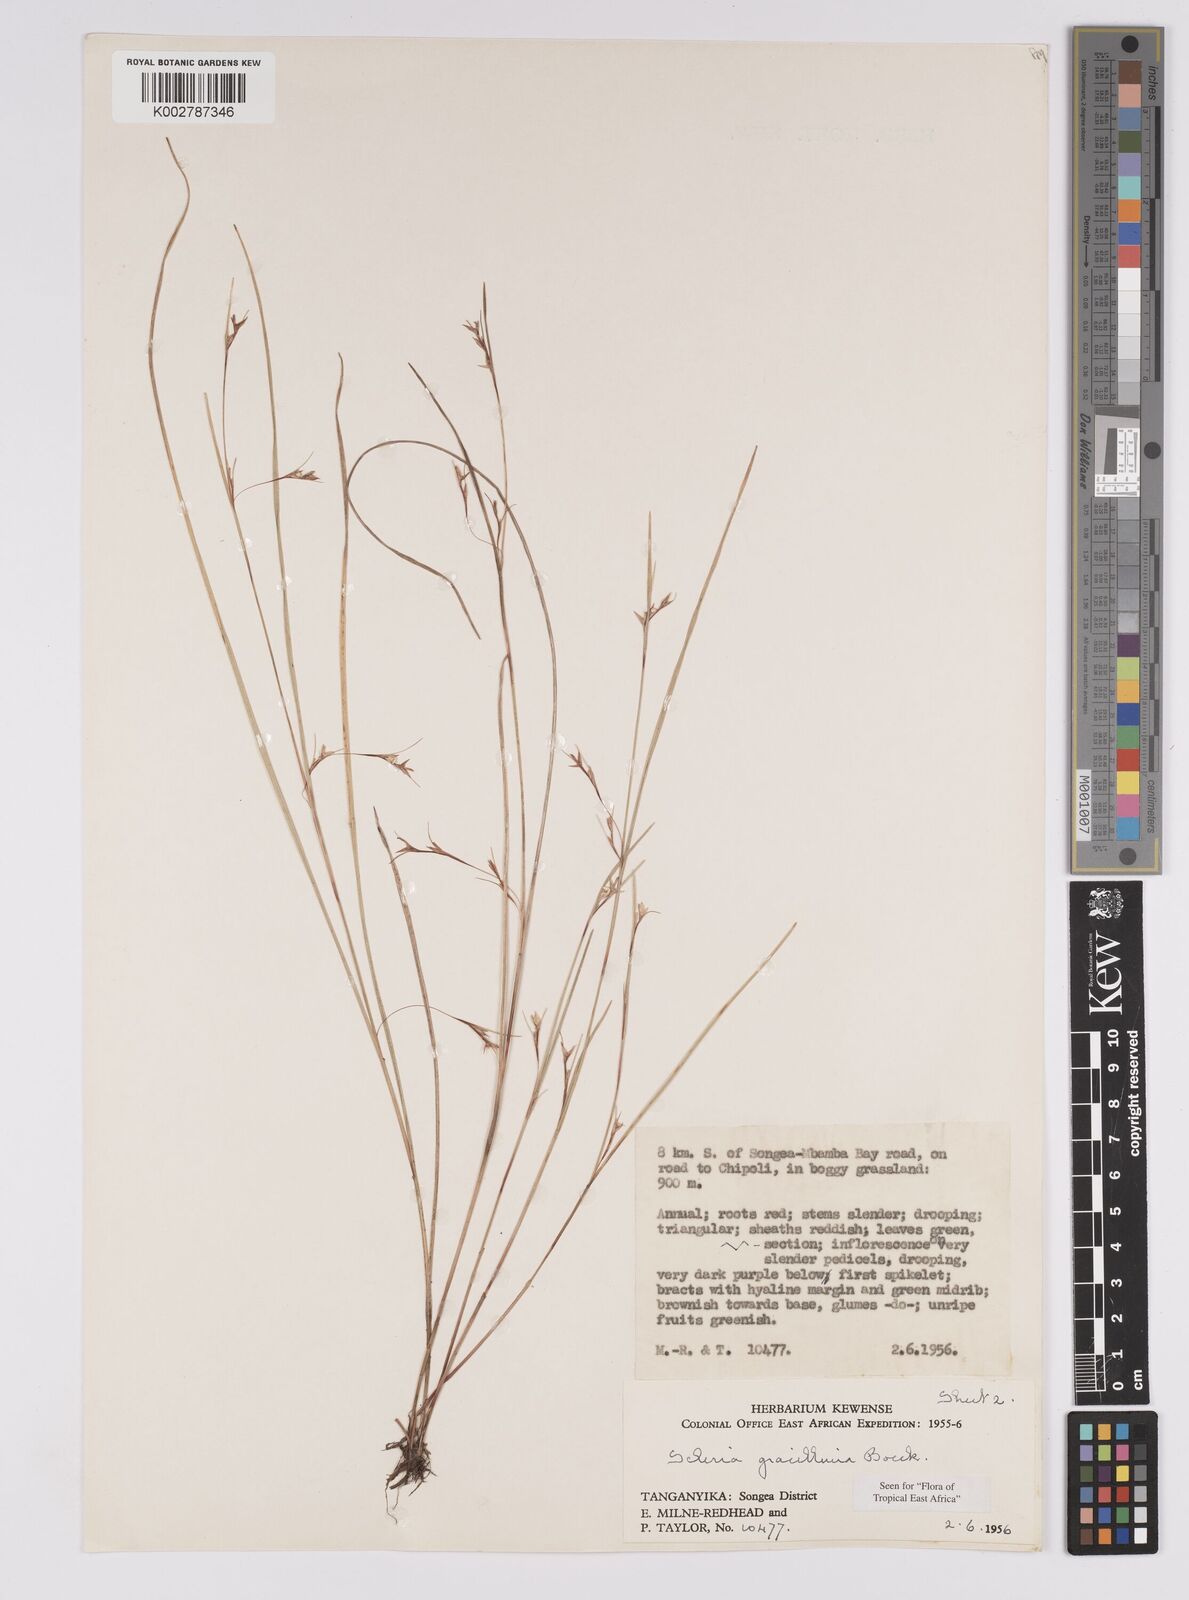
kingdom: Plantae
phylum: Tracheophyta
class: Liliopsida
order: Poales
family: Cyperaceae
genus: Scleria
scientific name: Scleria gracillima
